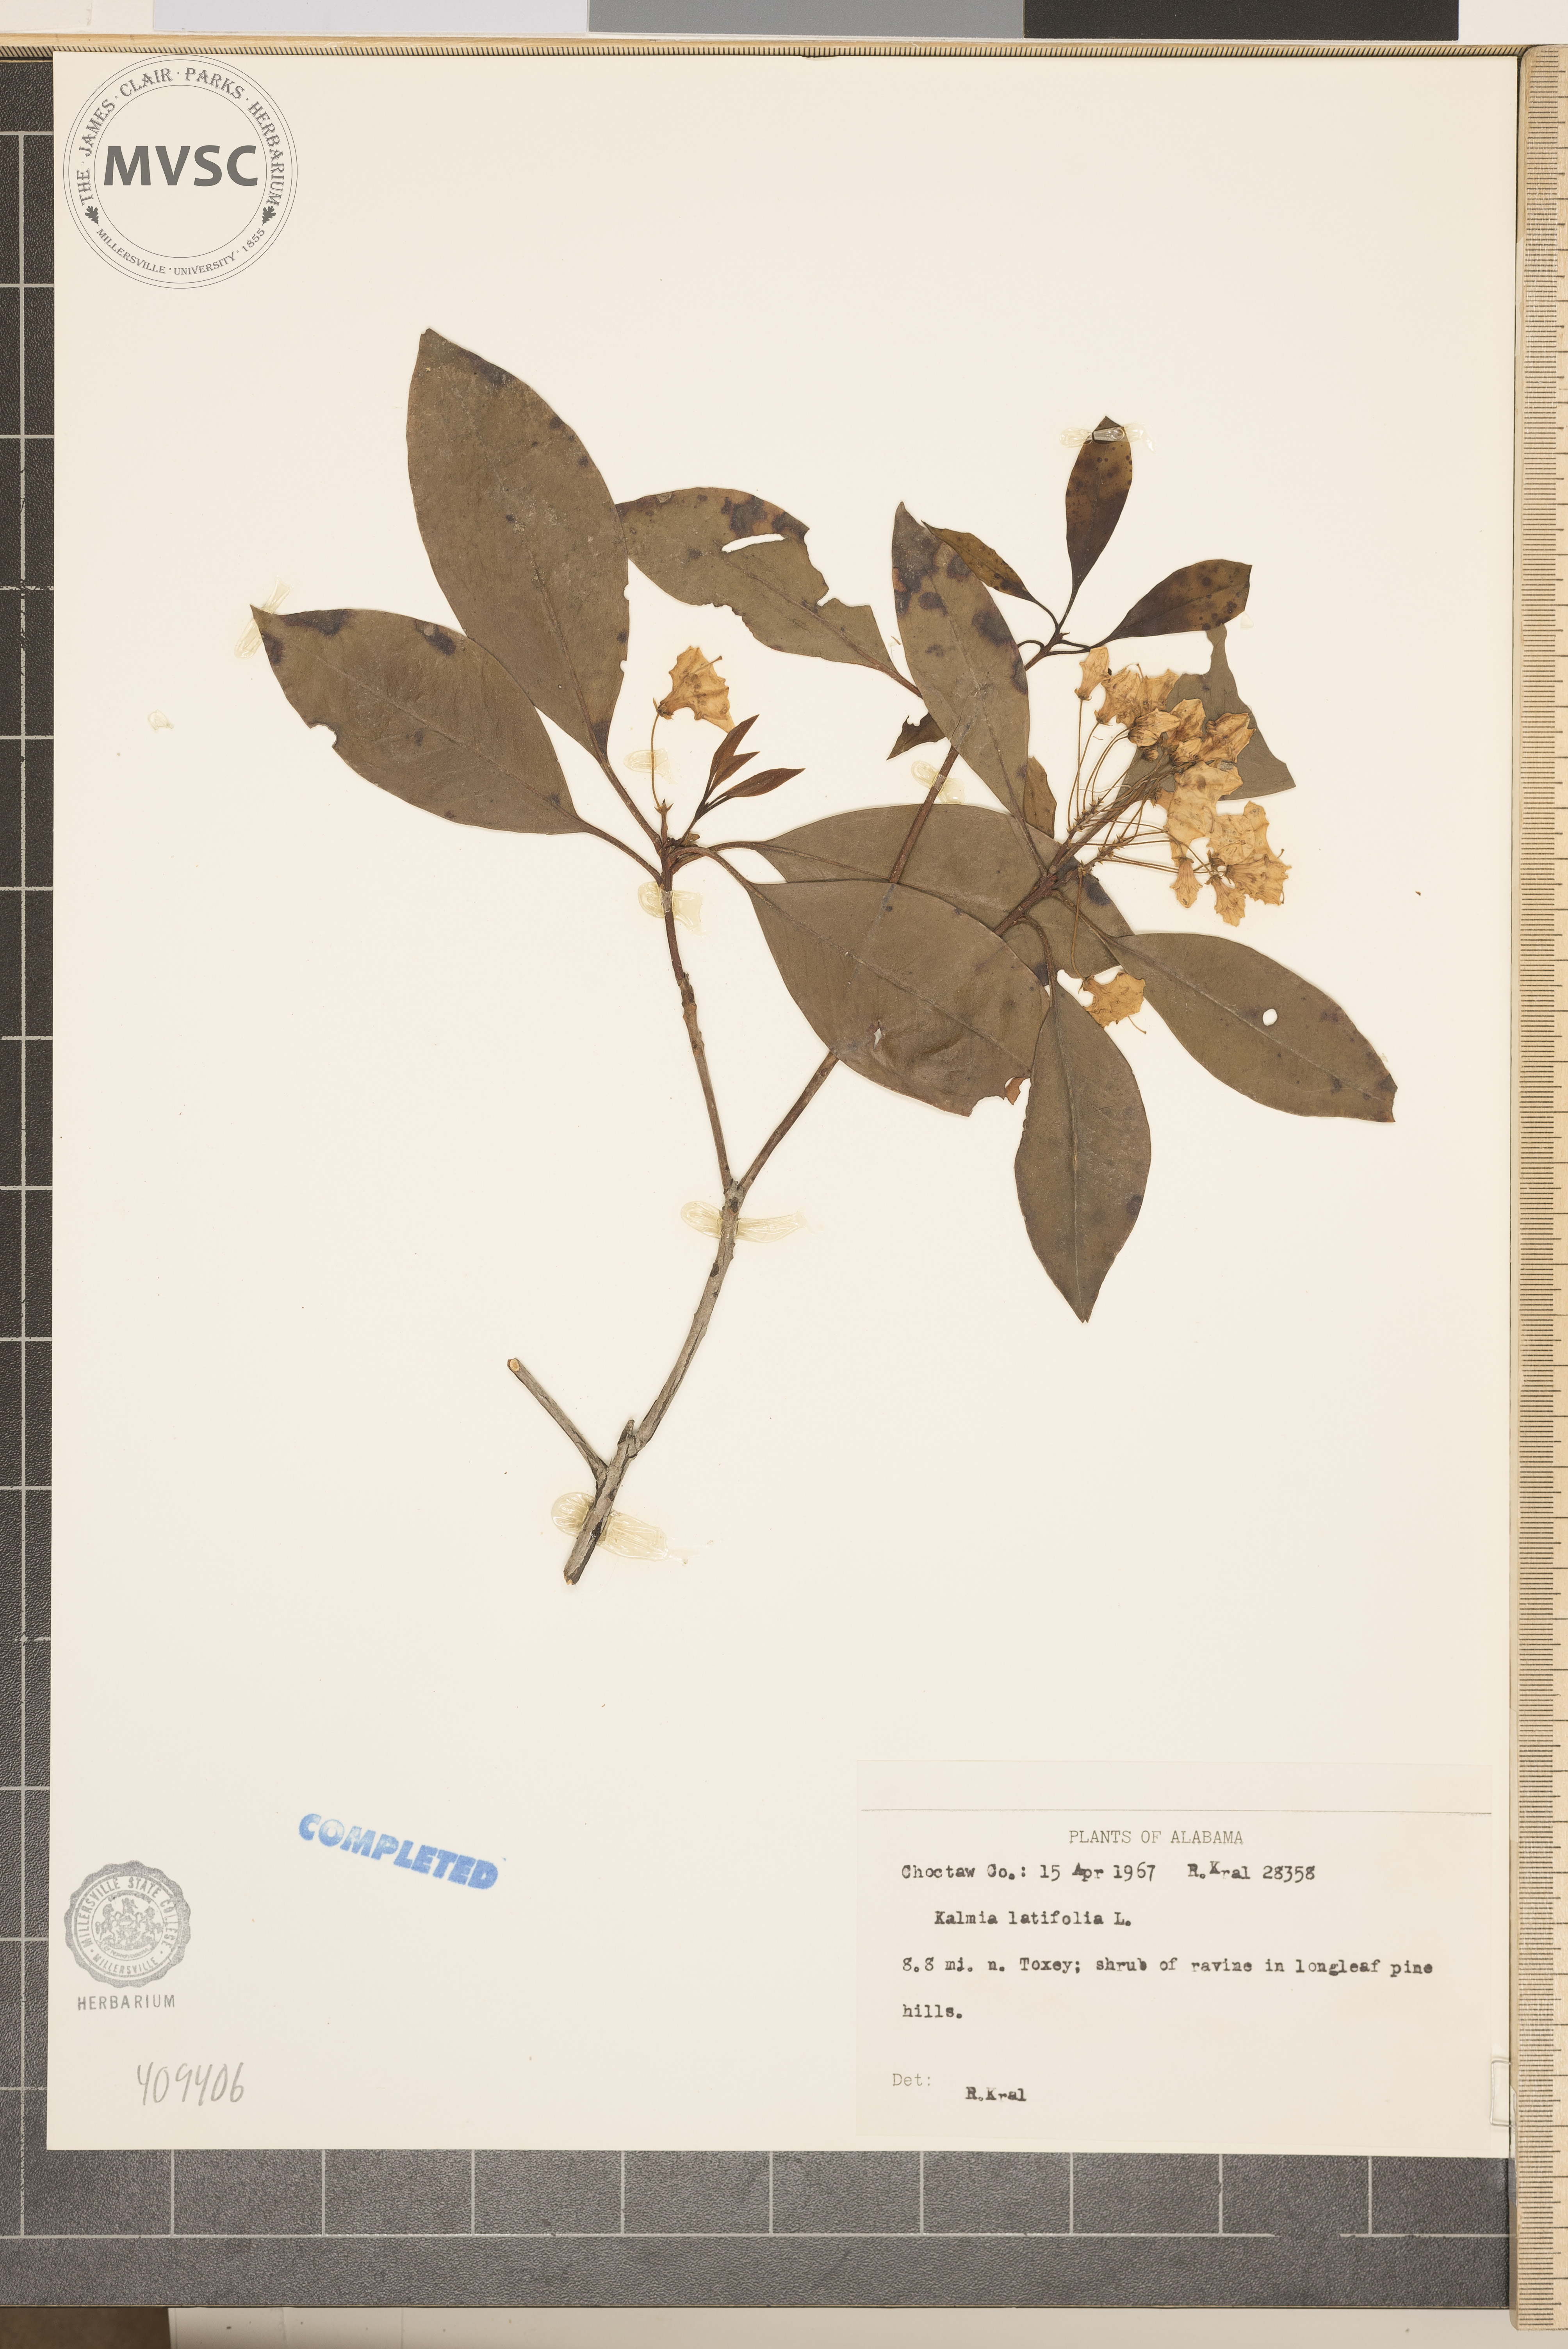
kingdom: Plantae
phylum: Tracheophyta
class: Magnoliopsida
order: Ericales
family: Ericaceae
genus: Kalmia
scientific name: Kalmia latifolia
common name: Mountain-laurel
